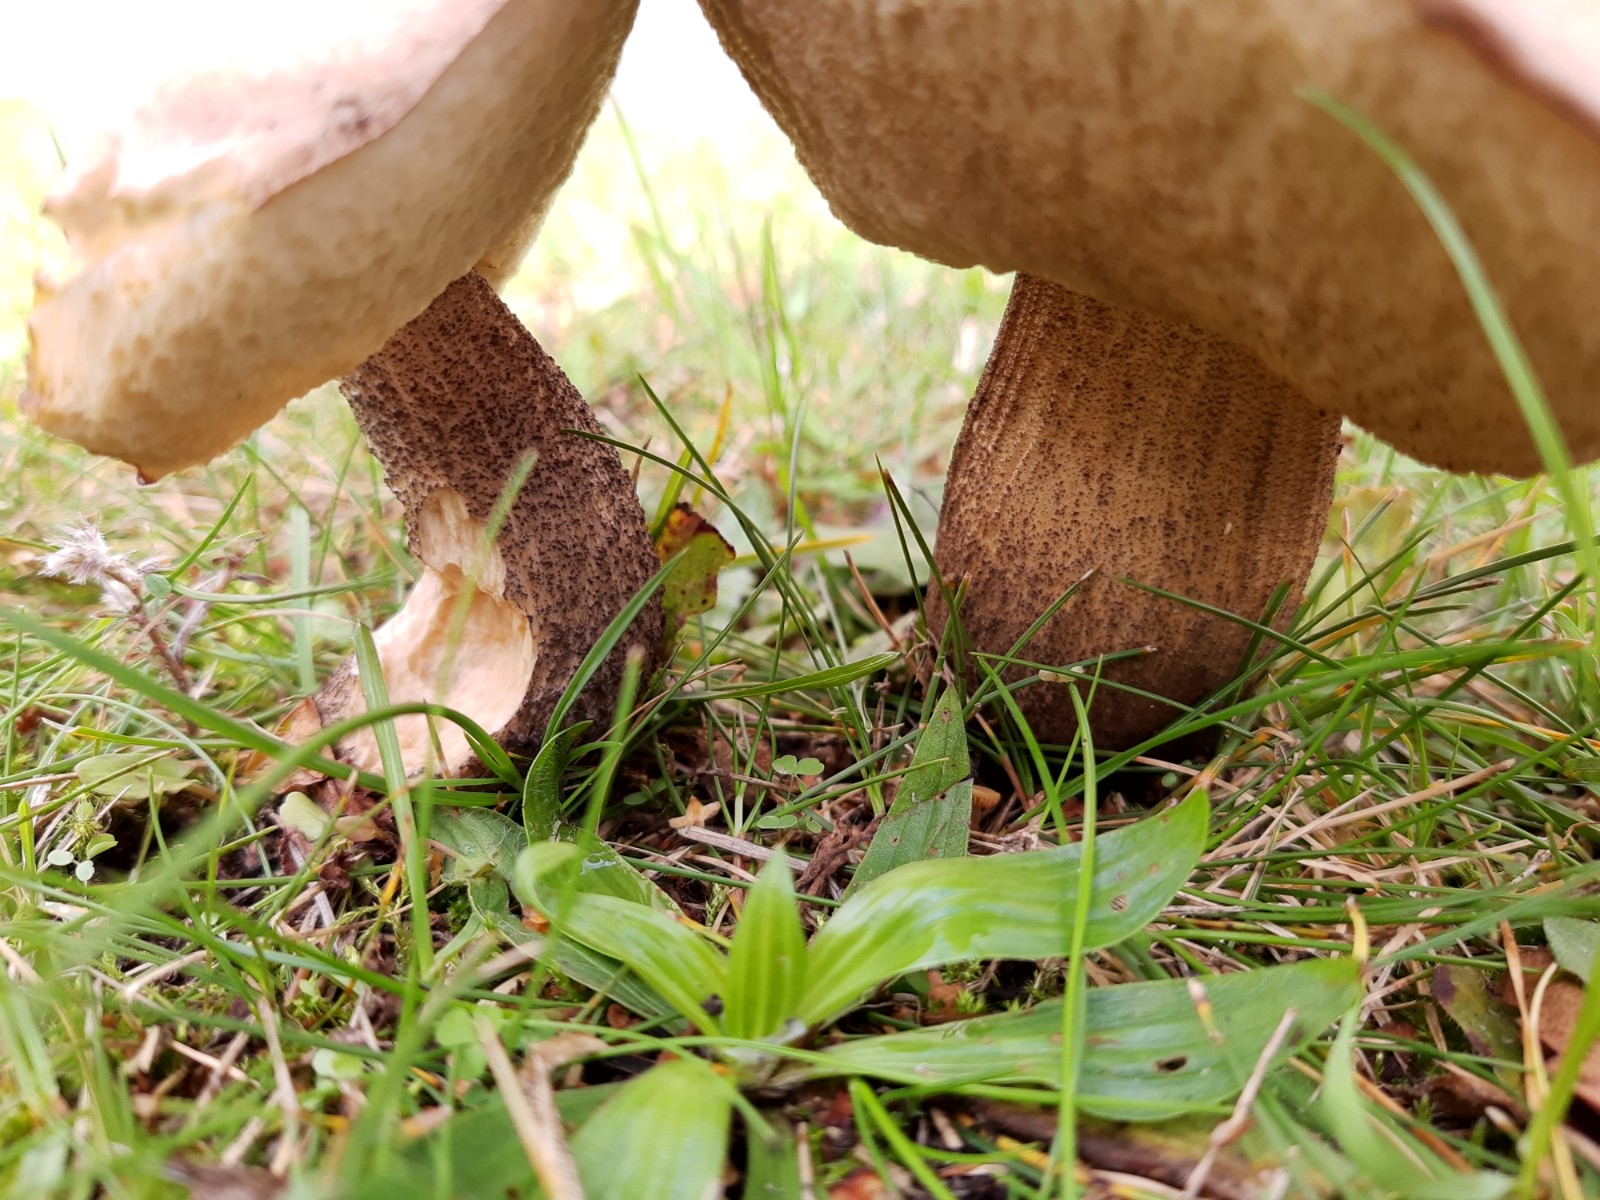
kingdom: Fungi
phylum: Basidiomycota
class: Agaricomycetes
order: Boletales
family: Boletaceae
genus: Leccinum
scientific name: Leccinum scabrum
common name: brun skælrørhat
